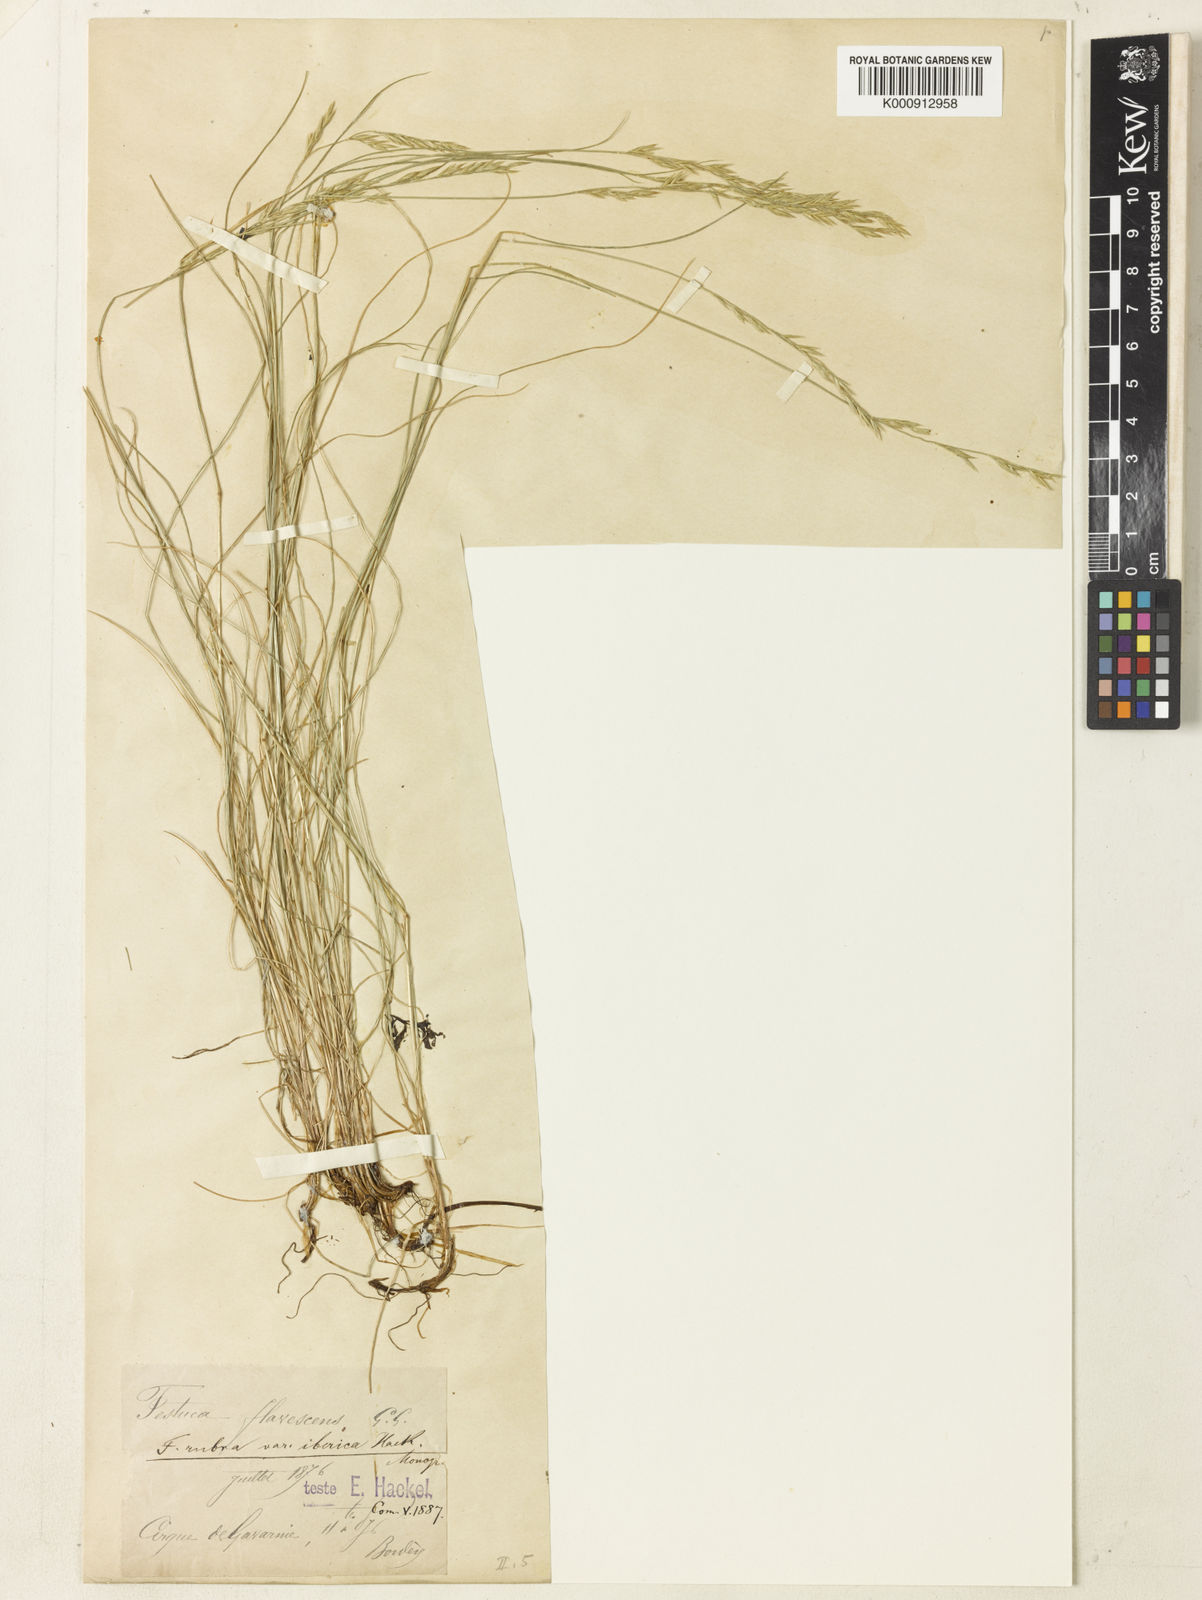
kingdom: Plantae
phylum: Tracheophyta
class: Liliopsida
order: Poales
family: Poaceae
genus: Festuca
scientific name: Festuca iberica
